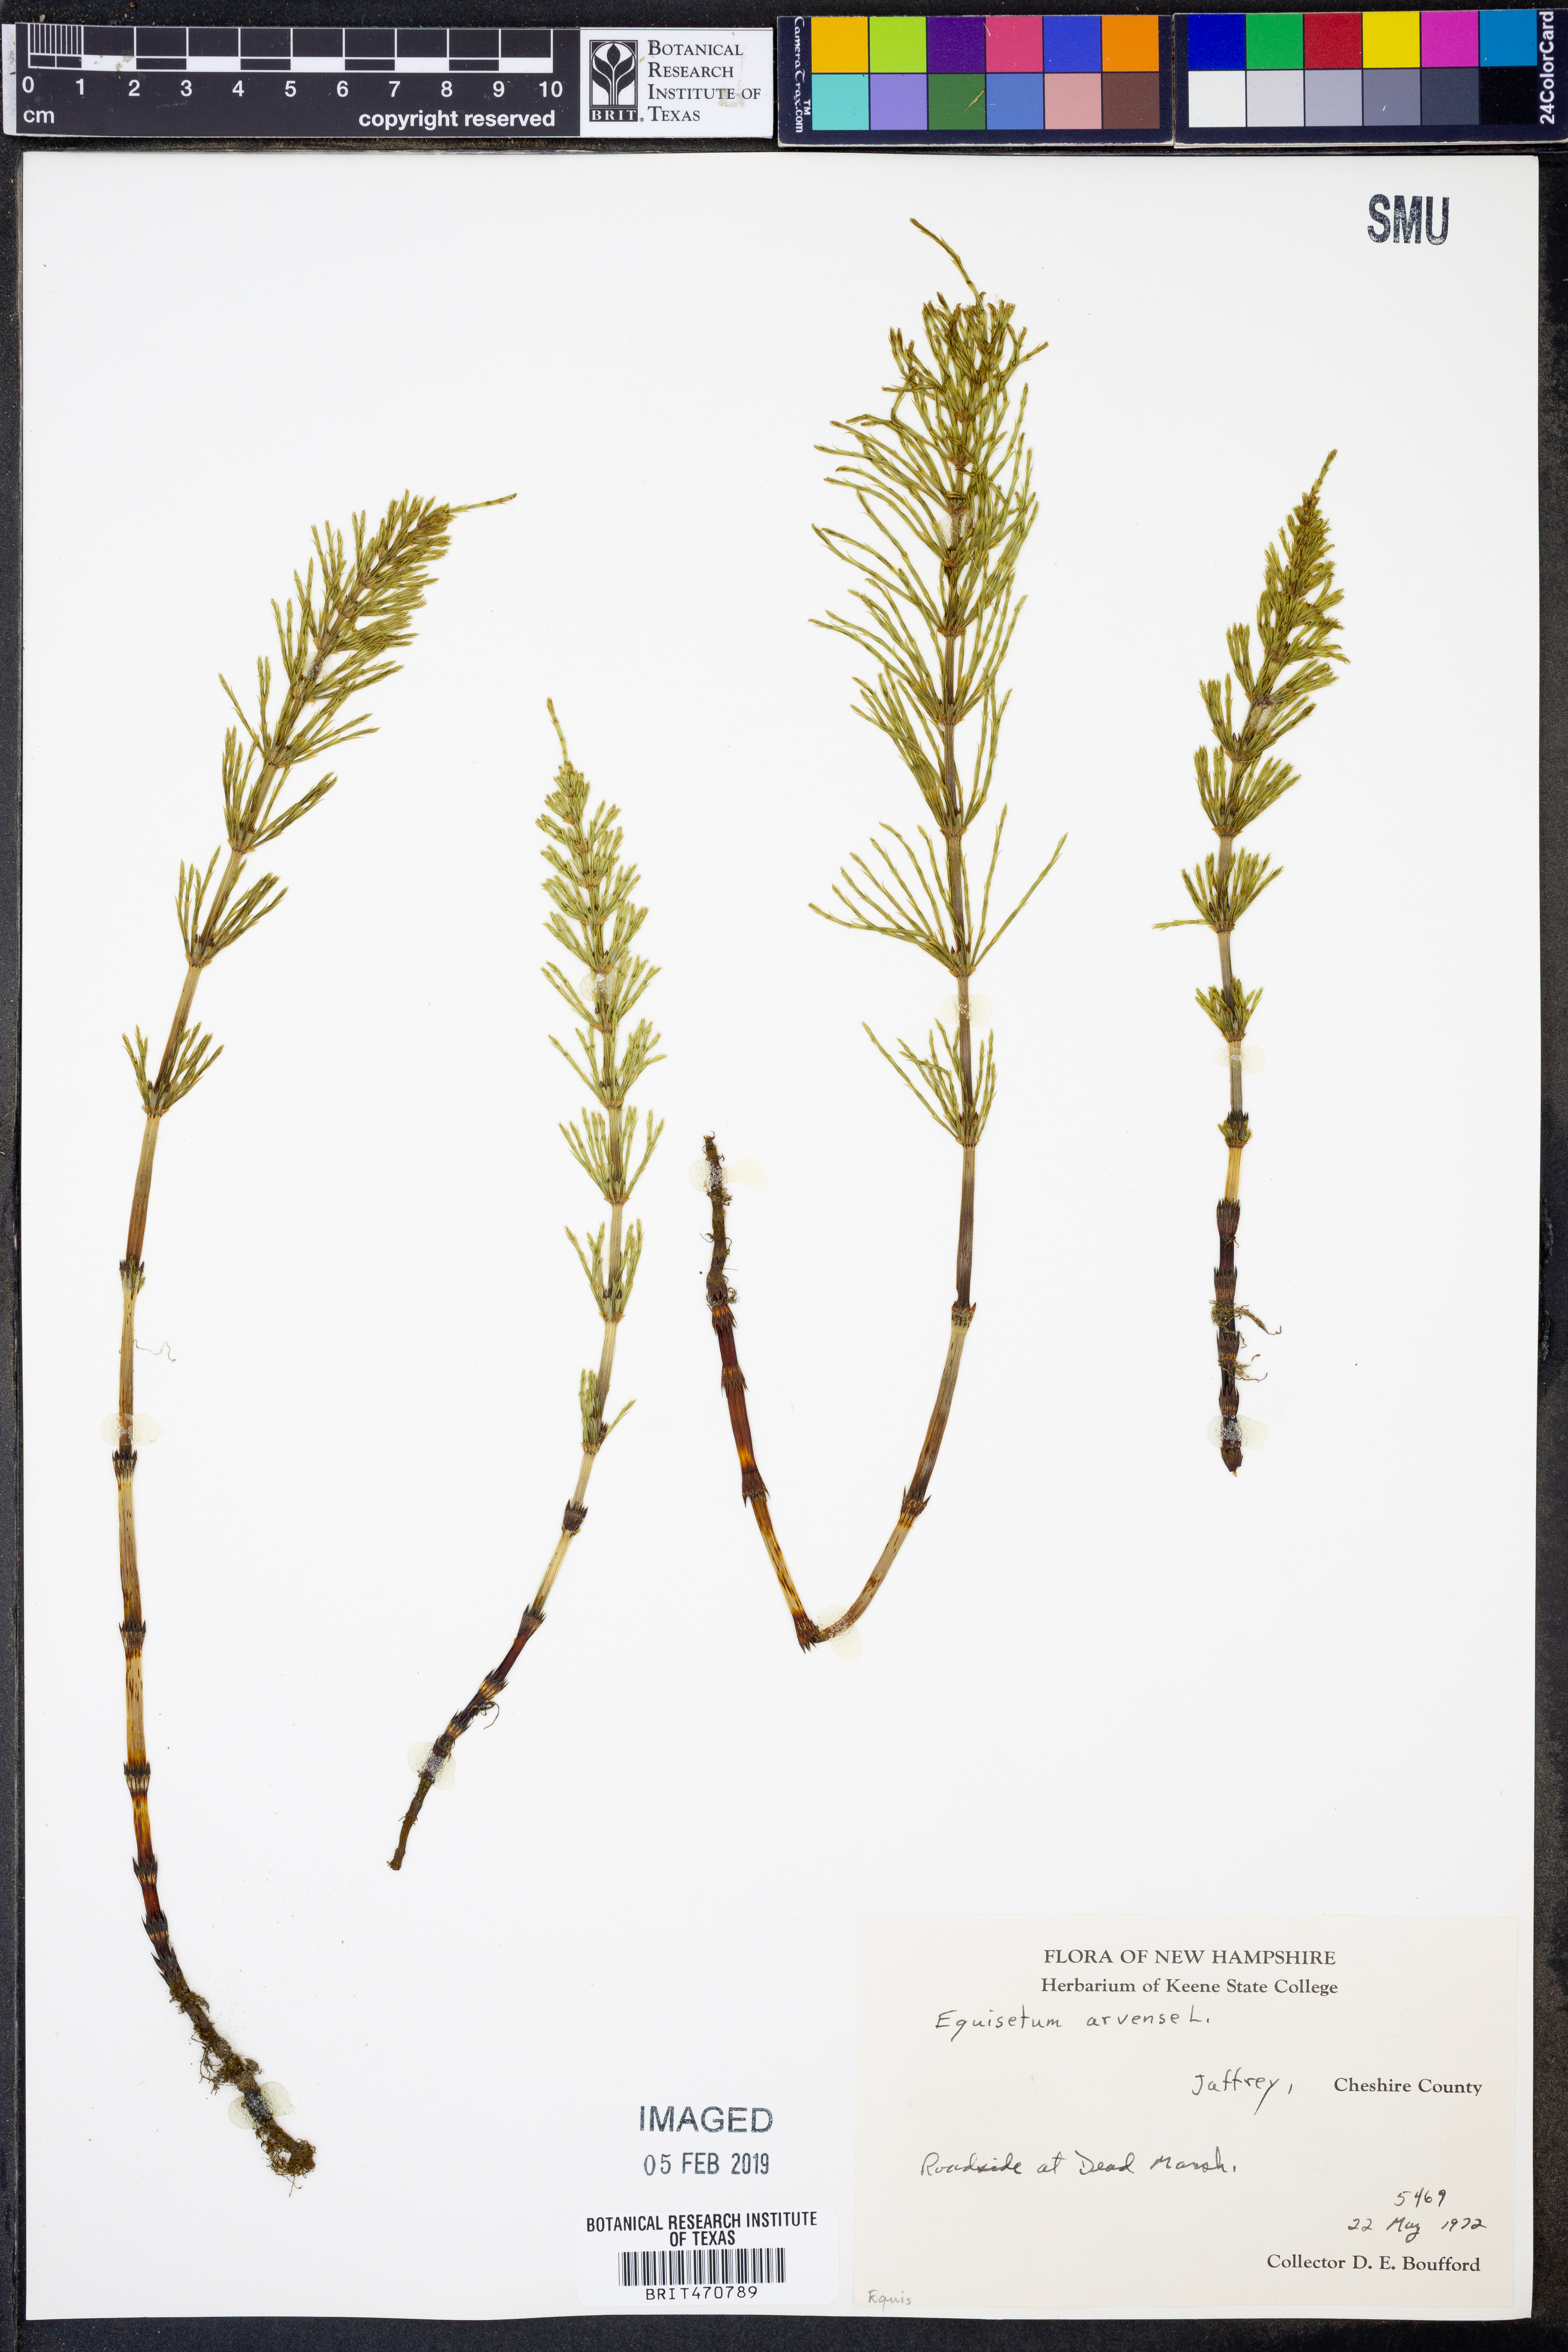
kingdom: Plantae
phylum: Tracheophyta
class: Polypodiopsida
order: Equisetales
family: Equisetaceae
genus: Equisetum
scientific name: Equisetum arvense
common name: Field horsetail
